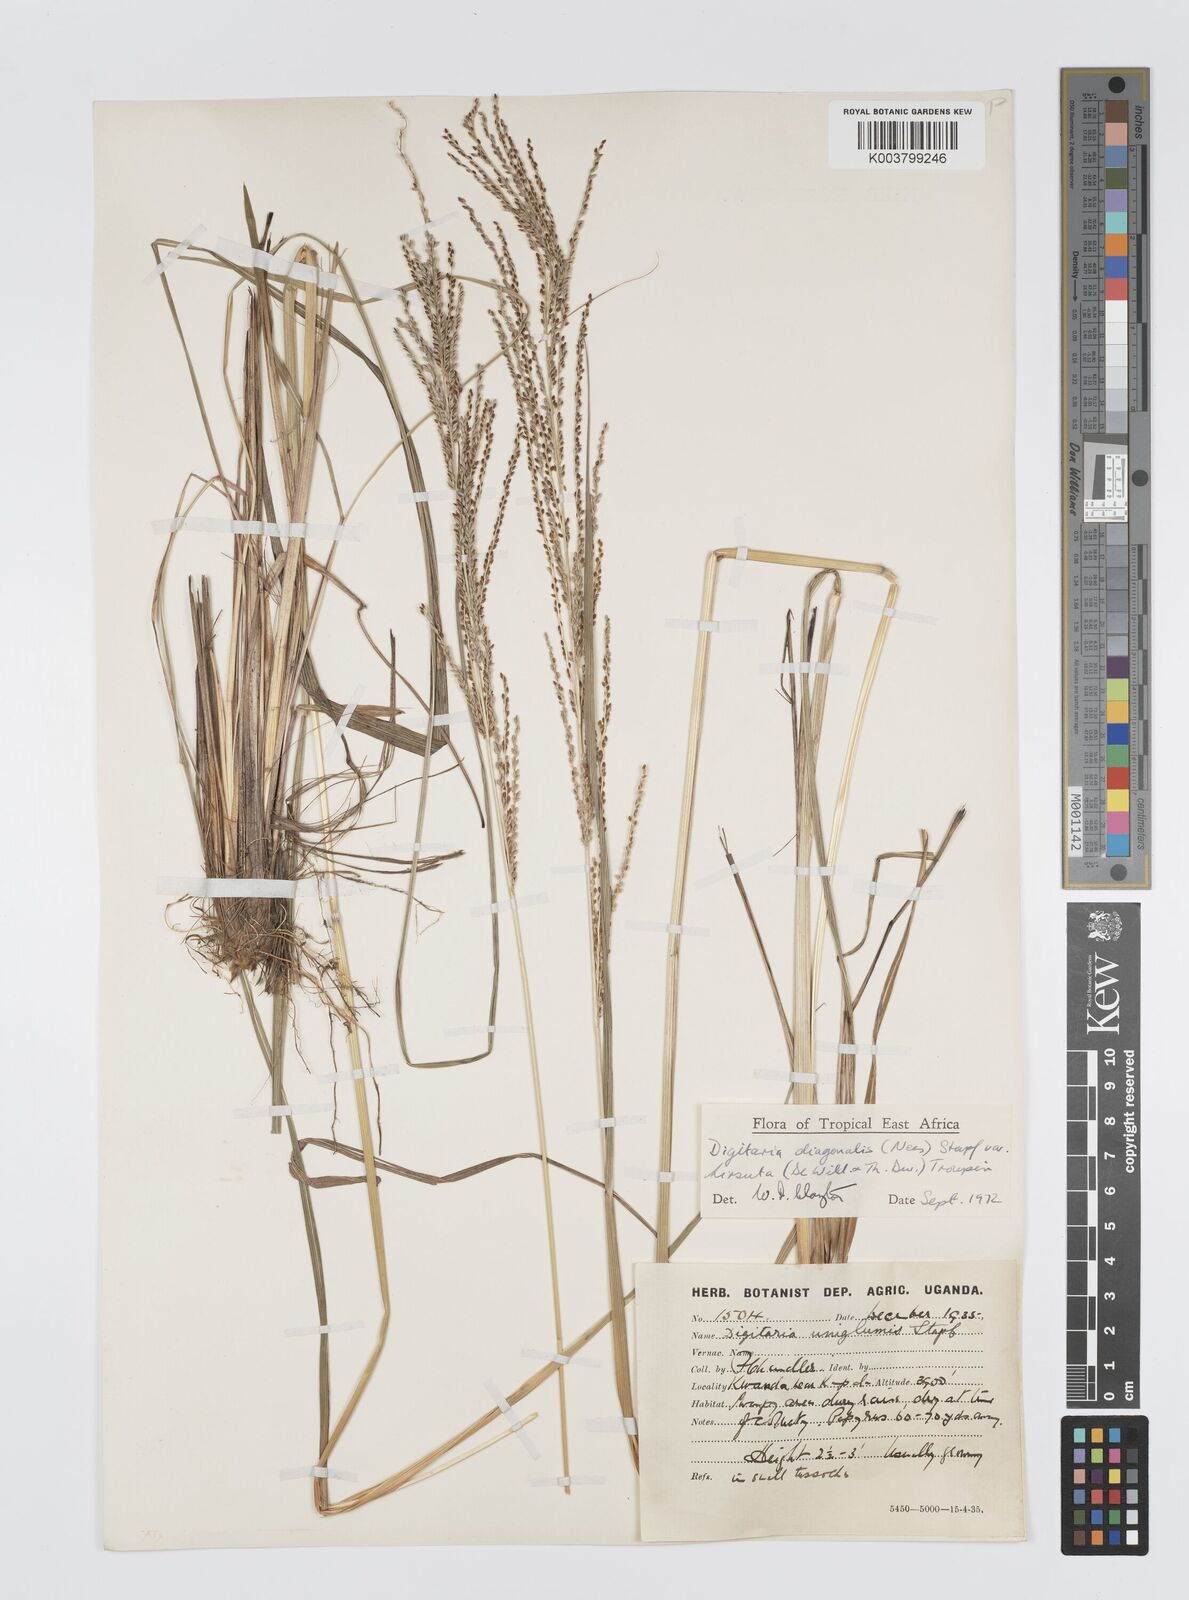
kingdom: Plantae
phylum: Tracheophyta
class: Liliopsida
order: Poales
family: Poaceae
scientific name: Poaceae
